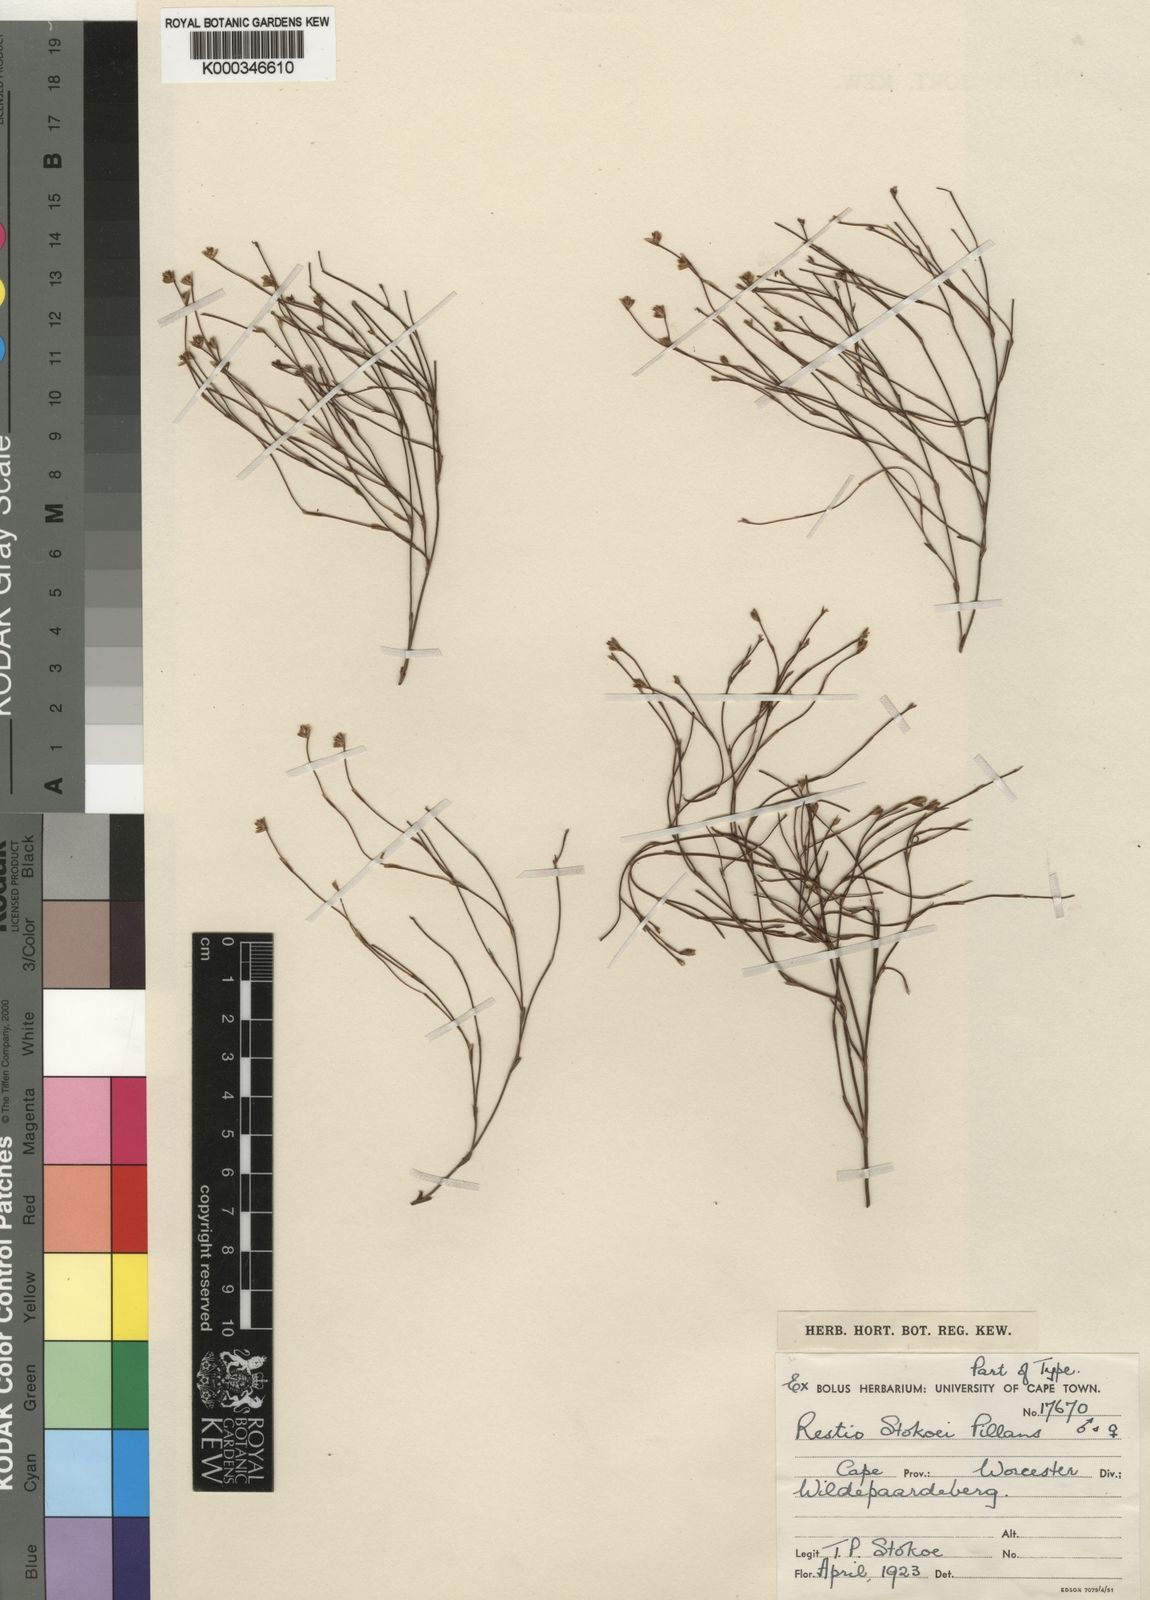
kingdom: Plantae
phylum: Tracheophyta
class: Liliopsida
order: Poales
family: Restionaceae
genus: Restio
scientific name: Restio stokoei
